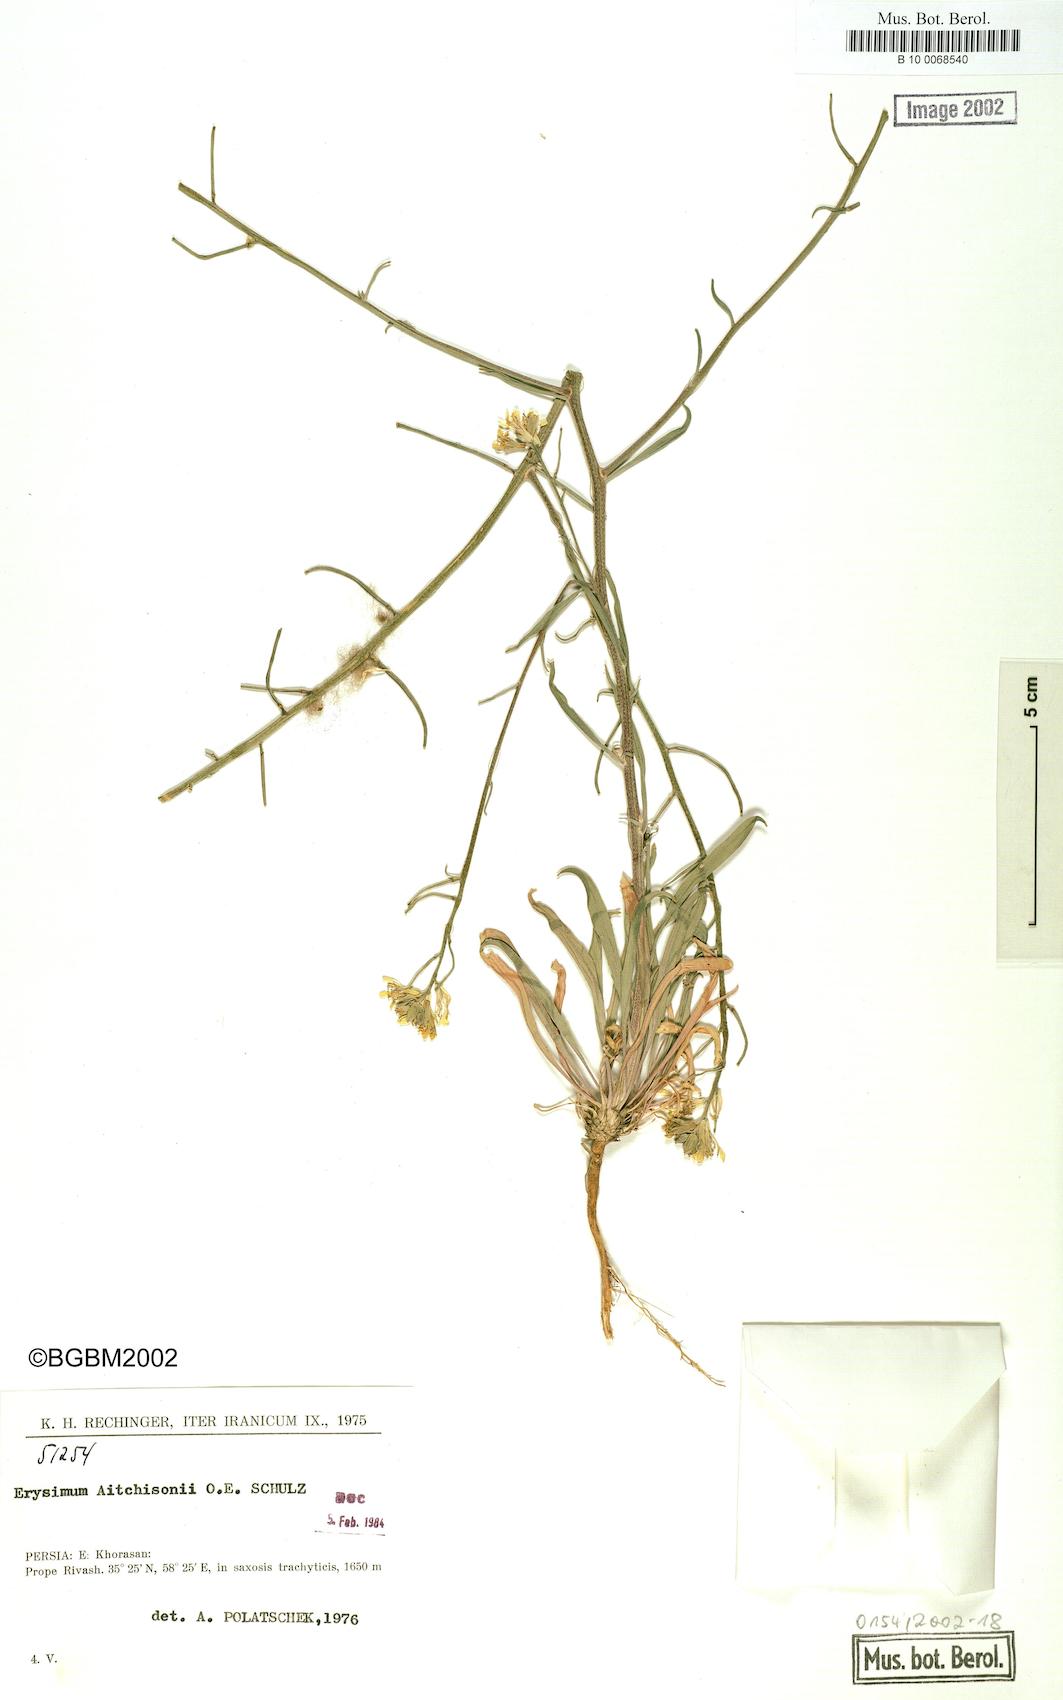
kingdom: Plantae
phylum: Tracheophyta
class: Magnoliopsida
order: Brassicales
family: Brassicaceae
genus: Erysimum
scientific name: Erysimum aitchisonii
